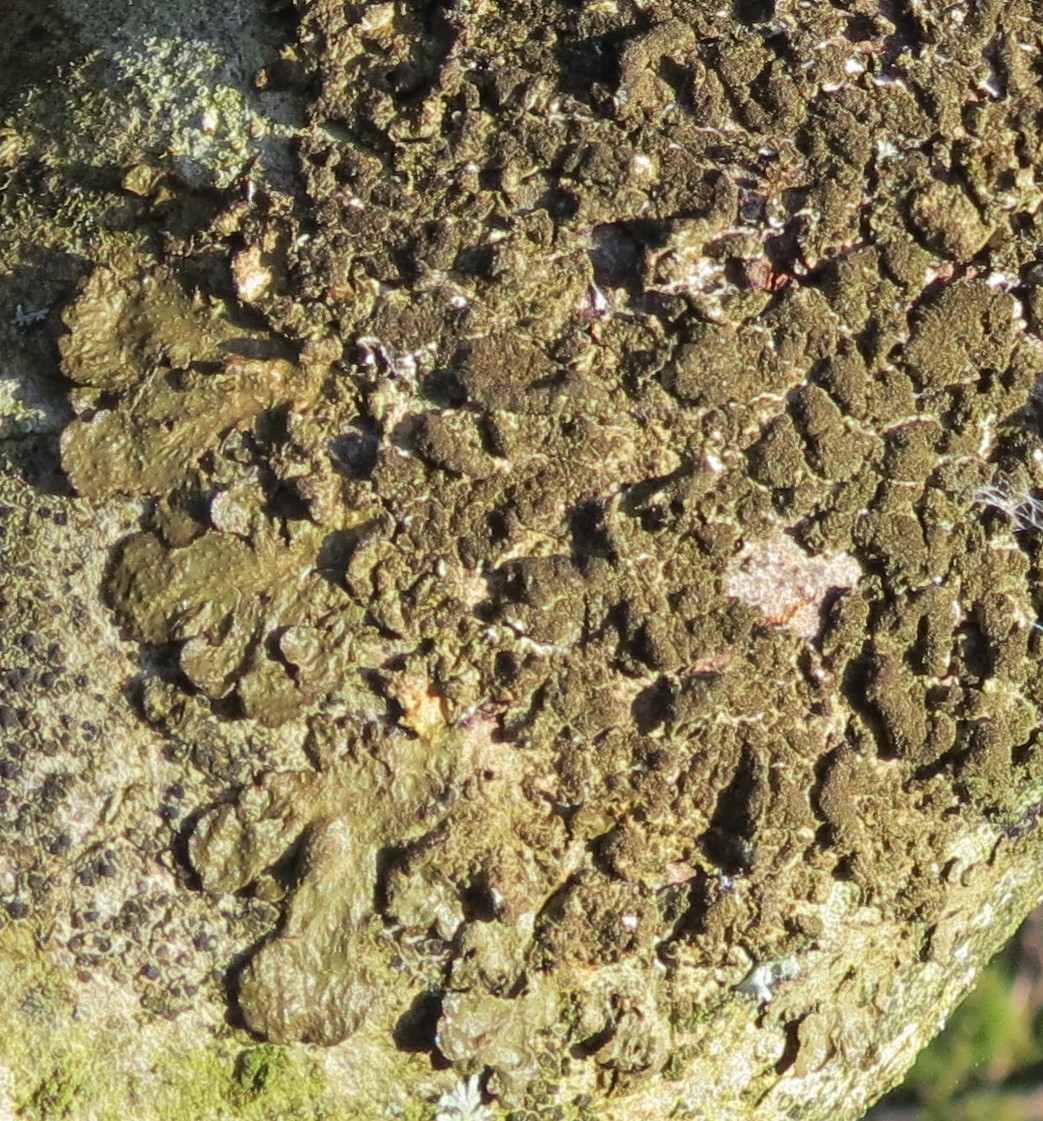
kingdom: Fungi
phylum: Ascomycota
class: Lecanoromycetes
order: Lecanorales
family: Parmeliaceae
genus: Melanelixia
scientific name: Melanelixia subaurifera
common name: guldpudret skållav
